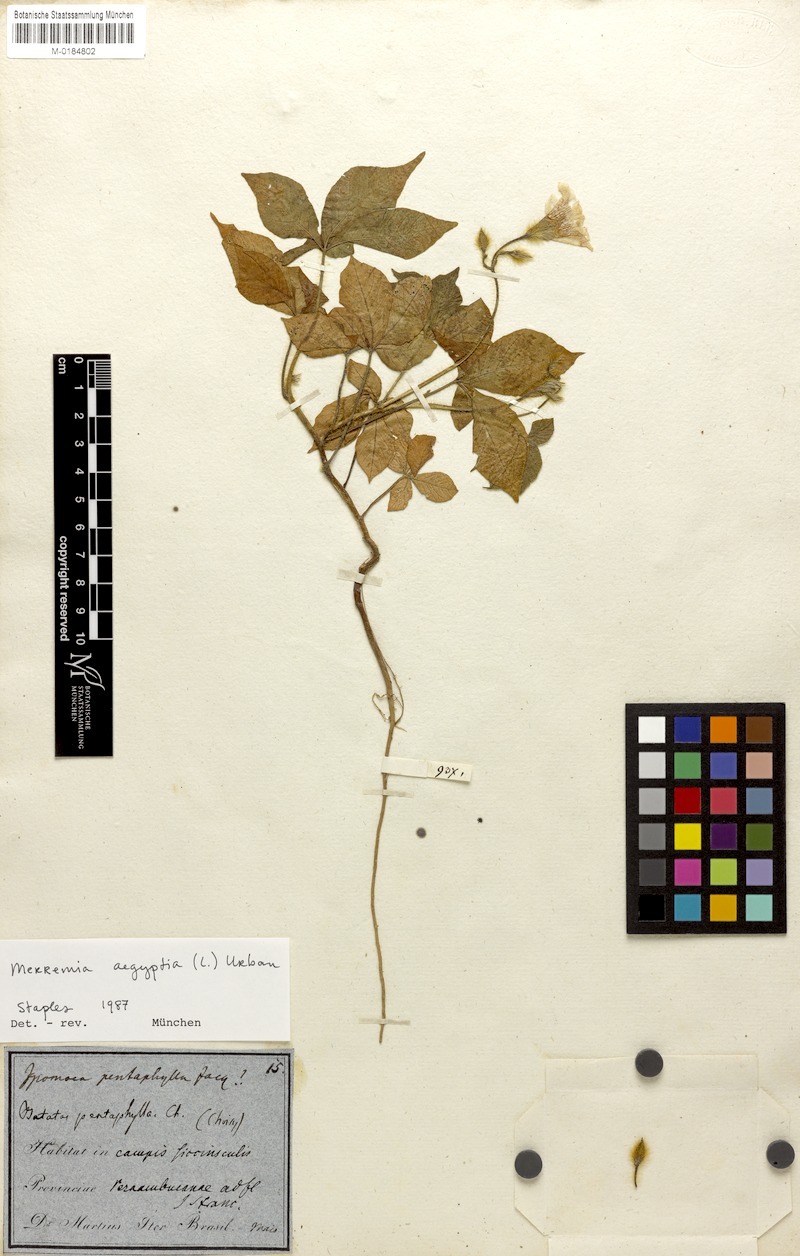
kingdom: Plantae
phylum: Tracheophyta
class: Magnoliopsida
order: Solanales
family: Convolvulaceae
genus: Distimake
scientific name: Distimake aegyptius
